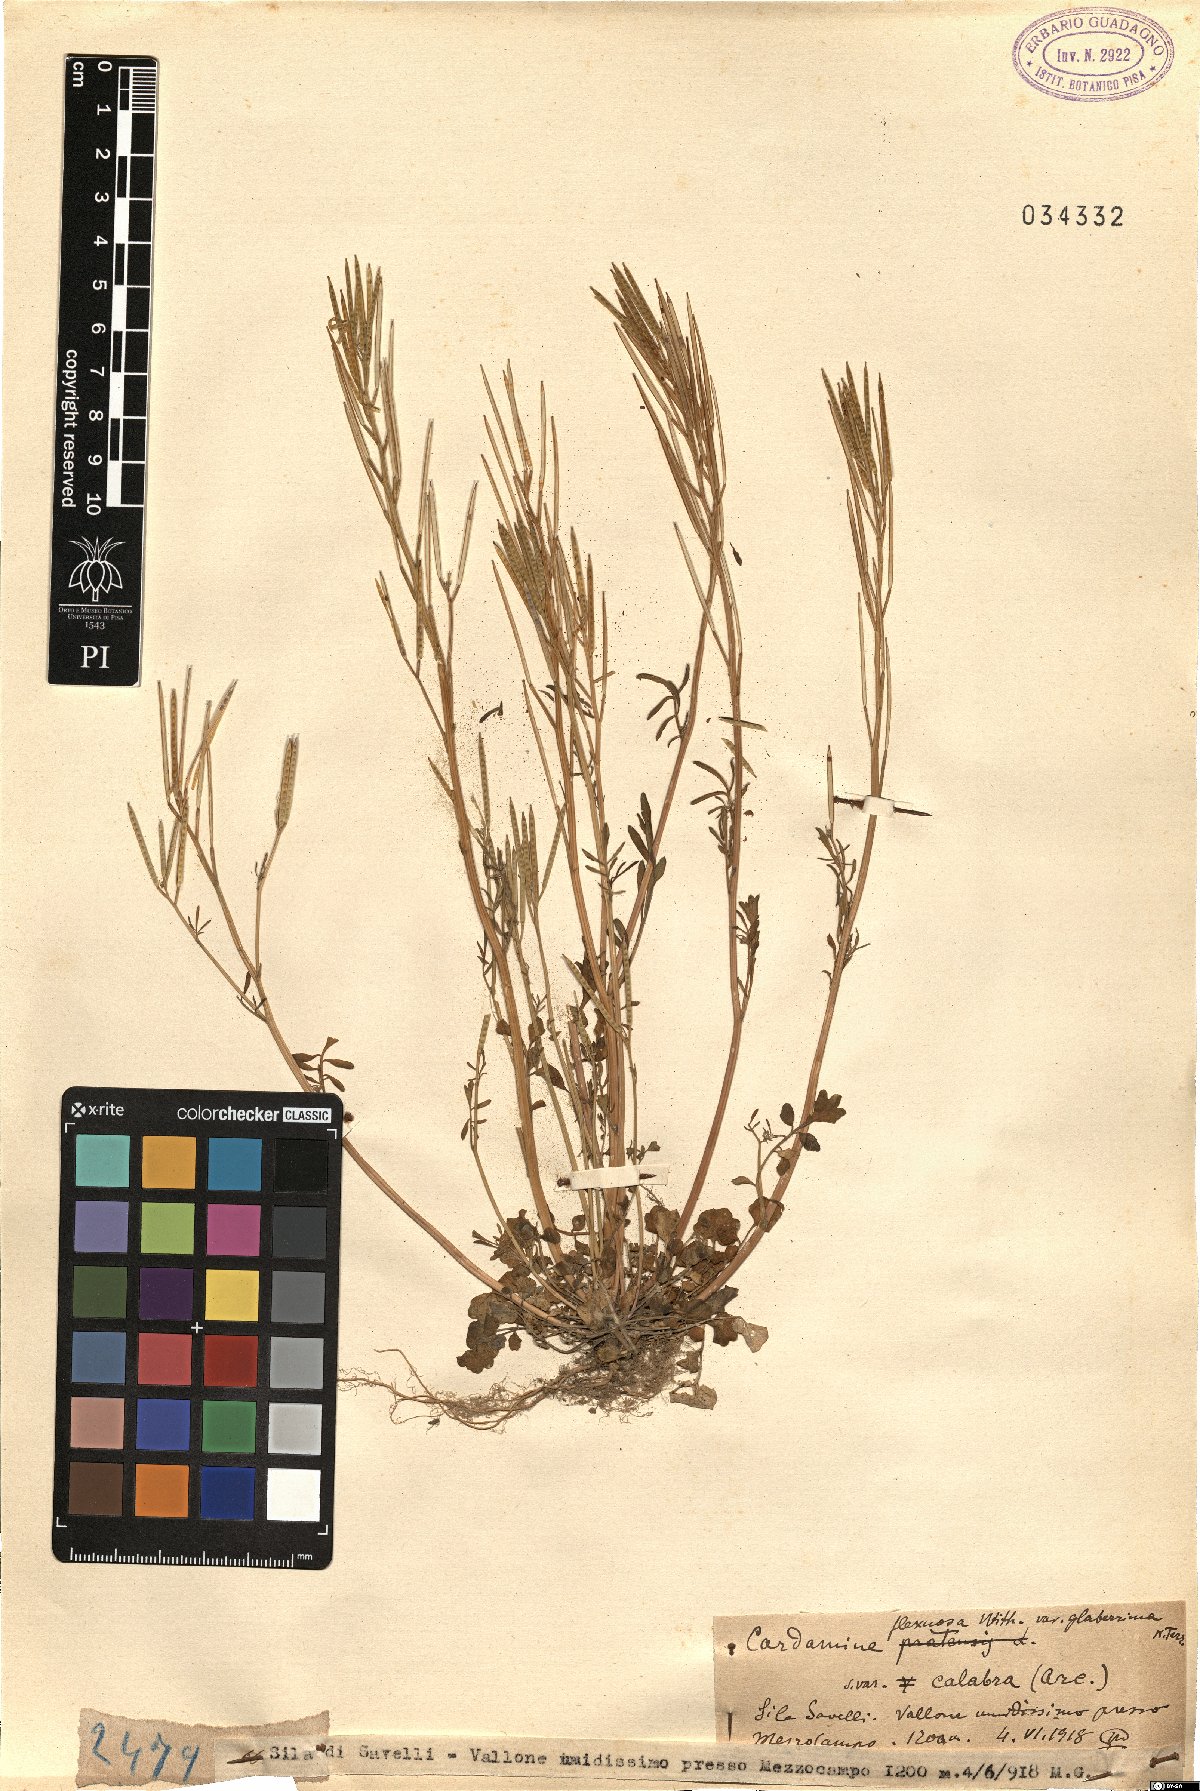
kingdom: Plantae
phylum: Tracheophyta
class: Magnoliopsida
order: Brassicales
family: Brassicaceae
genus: Cardamine
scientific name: Cardamine flexuosa
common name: Woodland bittercress
